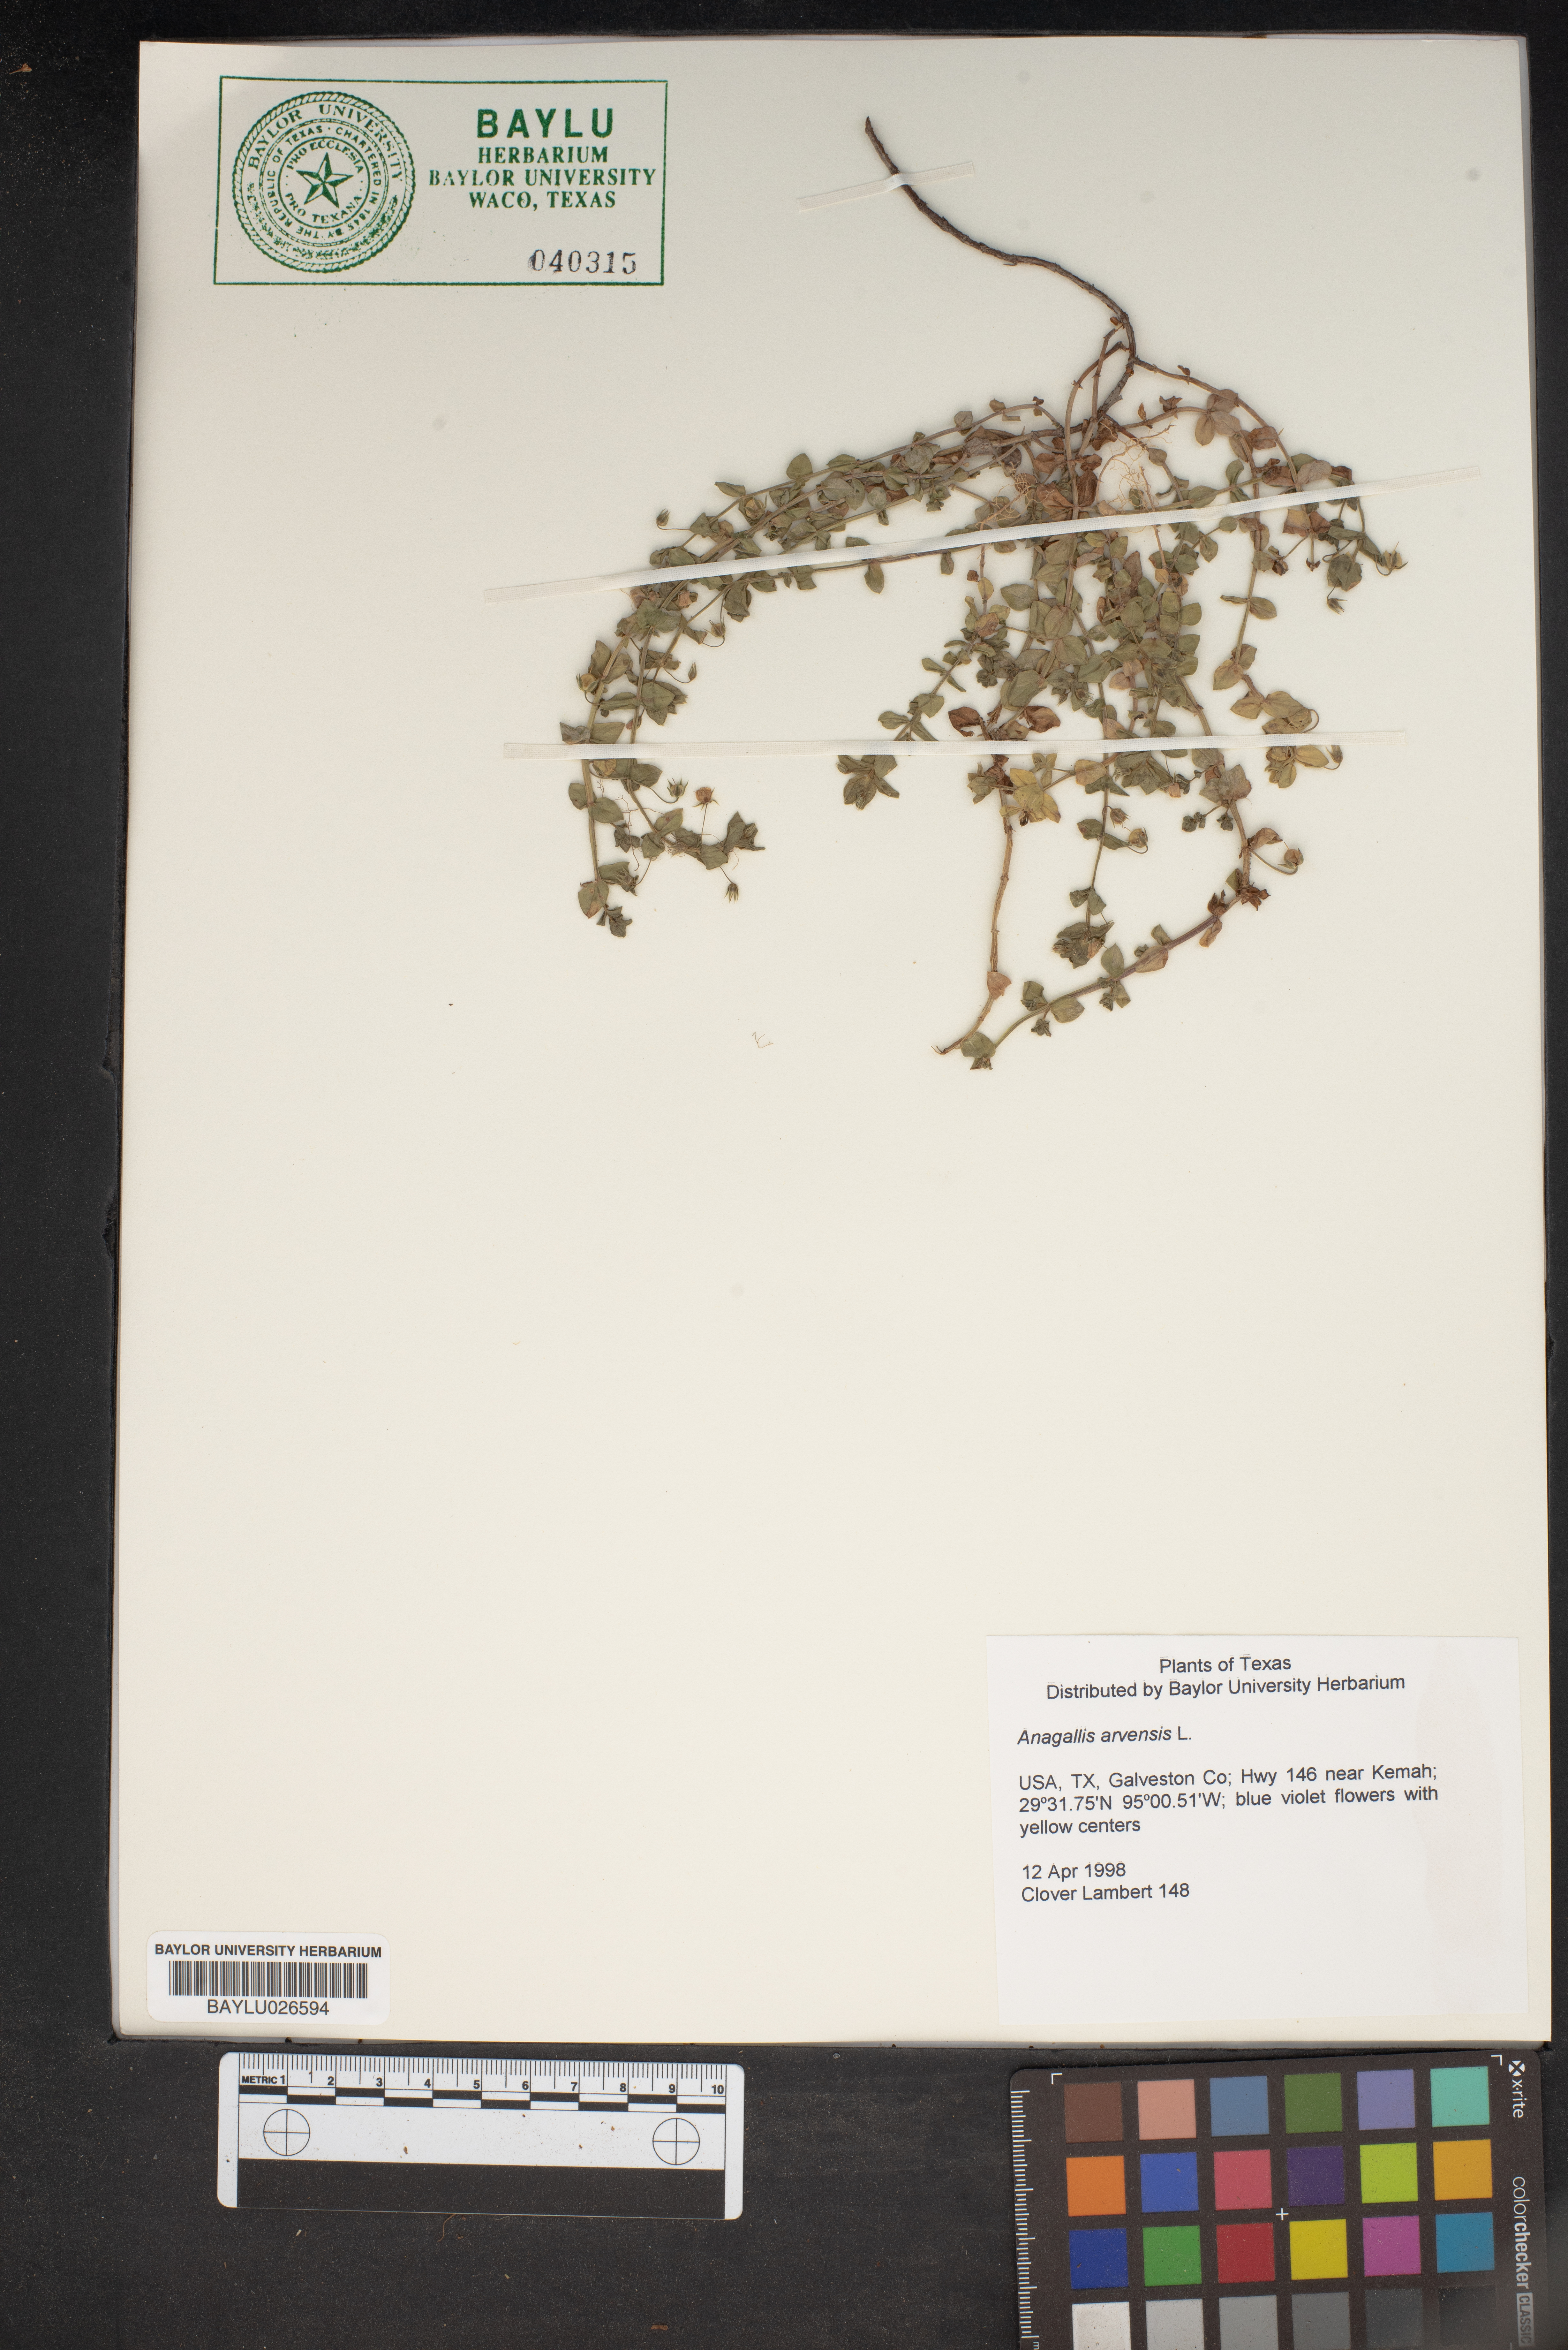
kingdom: Plantae
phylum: Tracheophyta
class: Magnoliopsida
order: Ericales
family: Primulaceae
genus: Lysimachia
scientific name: Lysimachia arvensis
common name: Scarlet pimpernel
